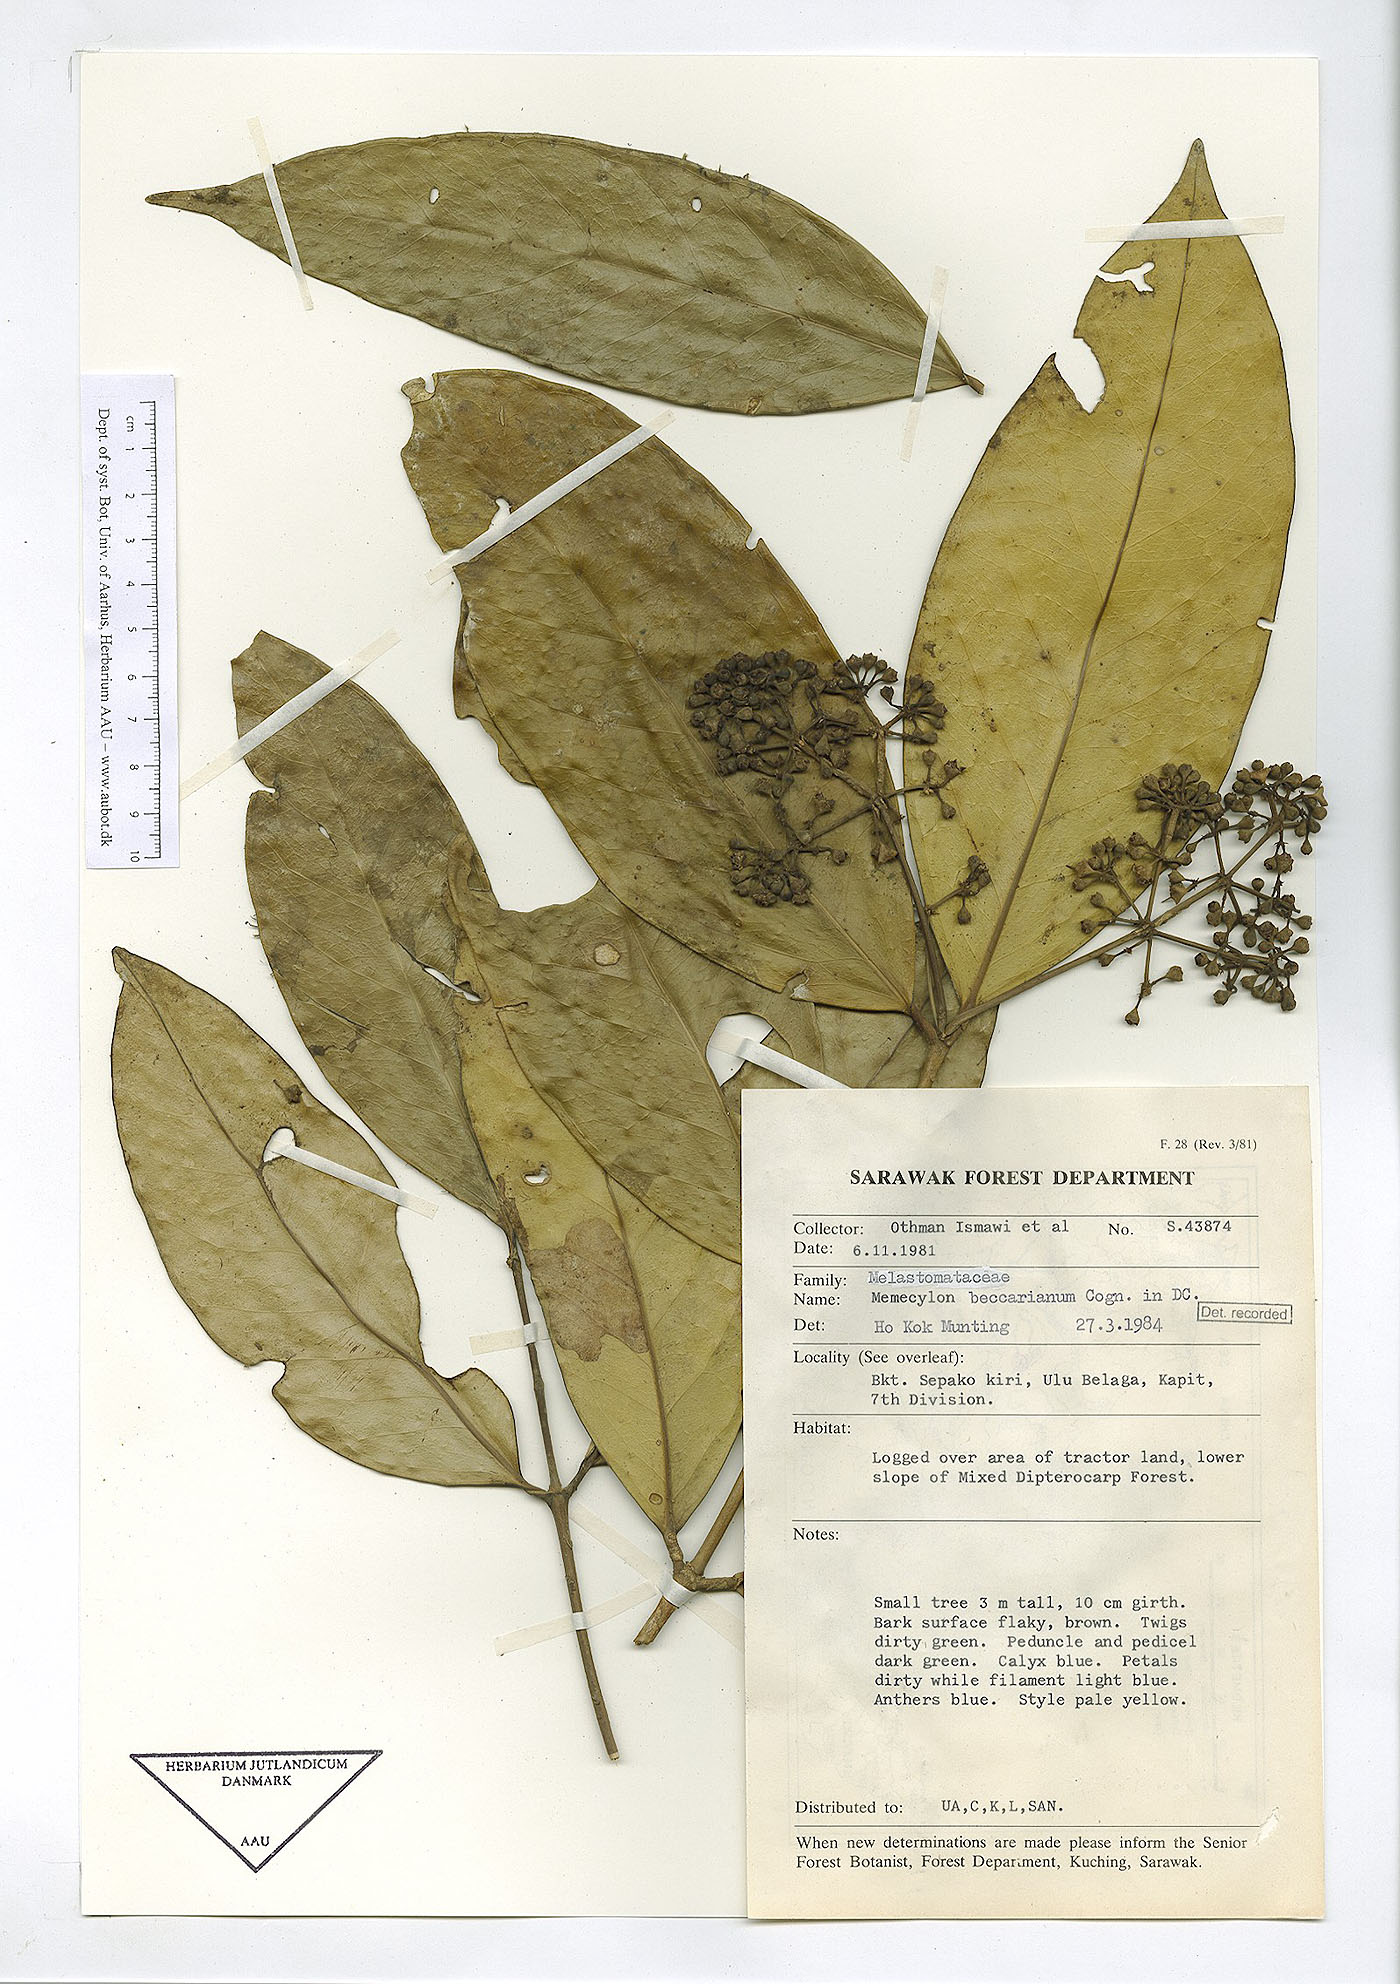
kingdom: Plantae
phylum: Tracheophyta
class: Magnoliopsida
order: Myrtales
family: Melastomataceae
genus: Memecylon
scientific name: Memecylon beccarianum
